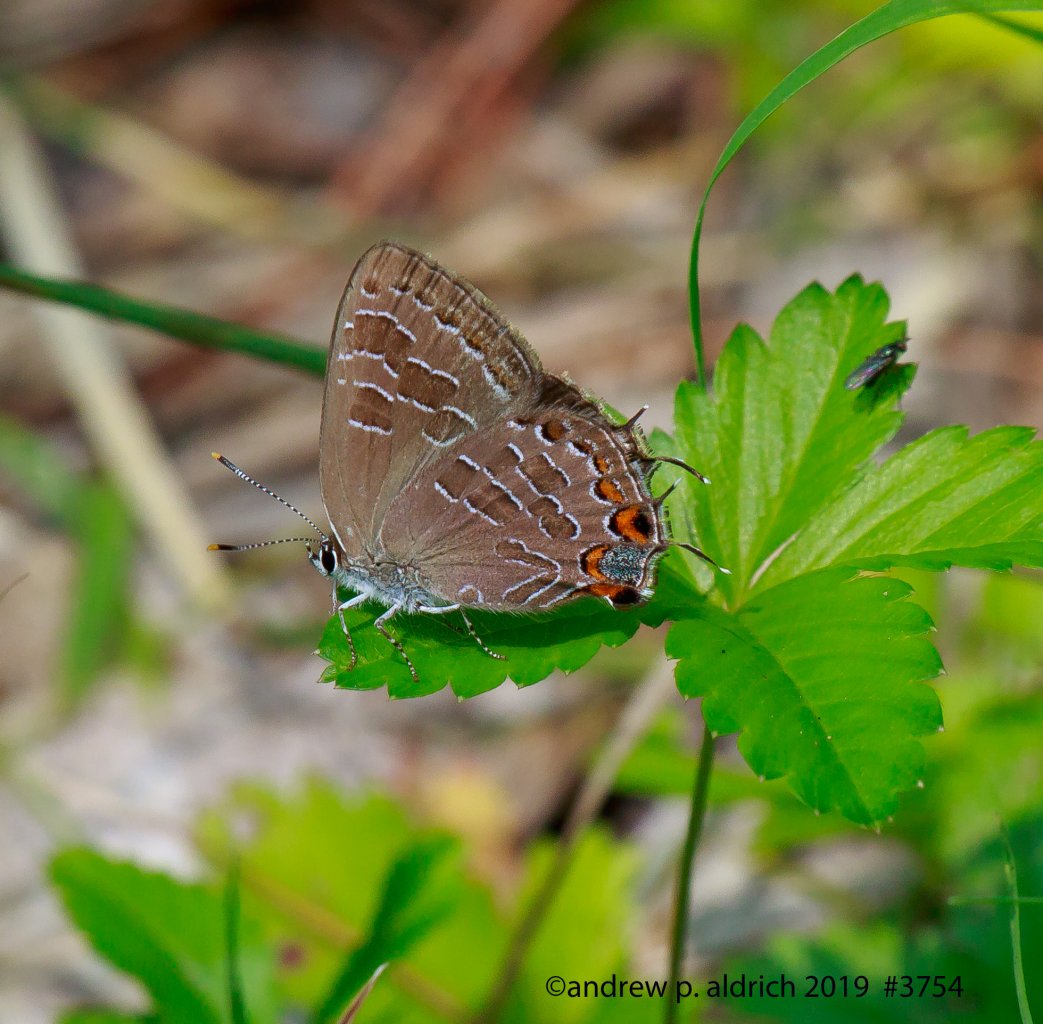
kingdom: Animalia
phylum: Arthropoda
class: Insecta
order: Lepidoptera
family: Lycaenidae
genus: Satyrium
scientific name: Satyrium liparops
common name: Striped Hairstreak
